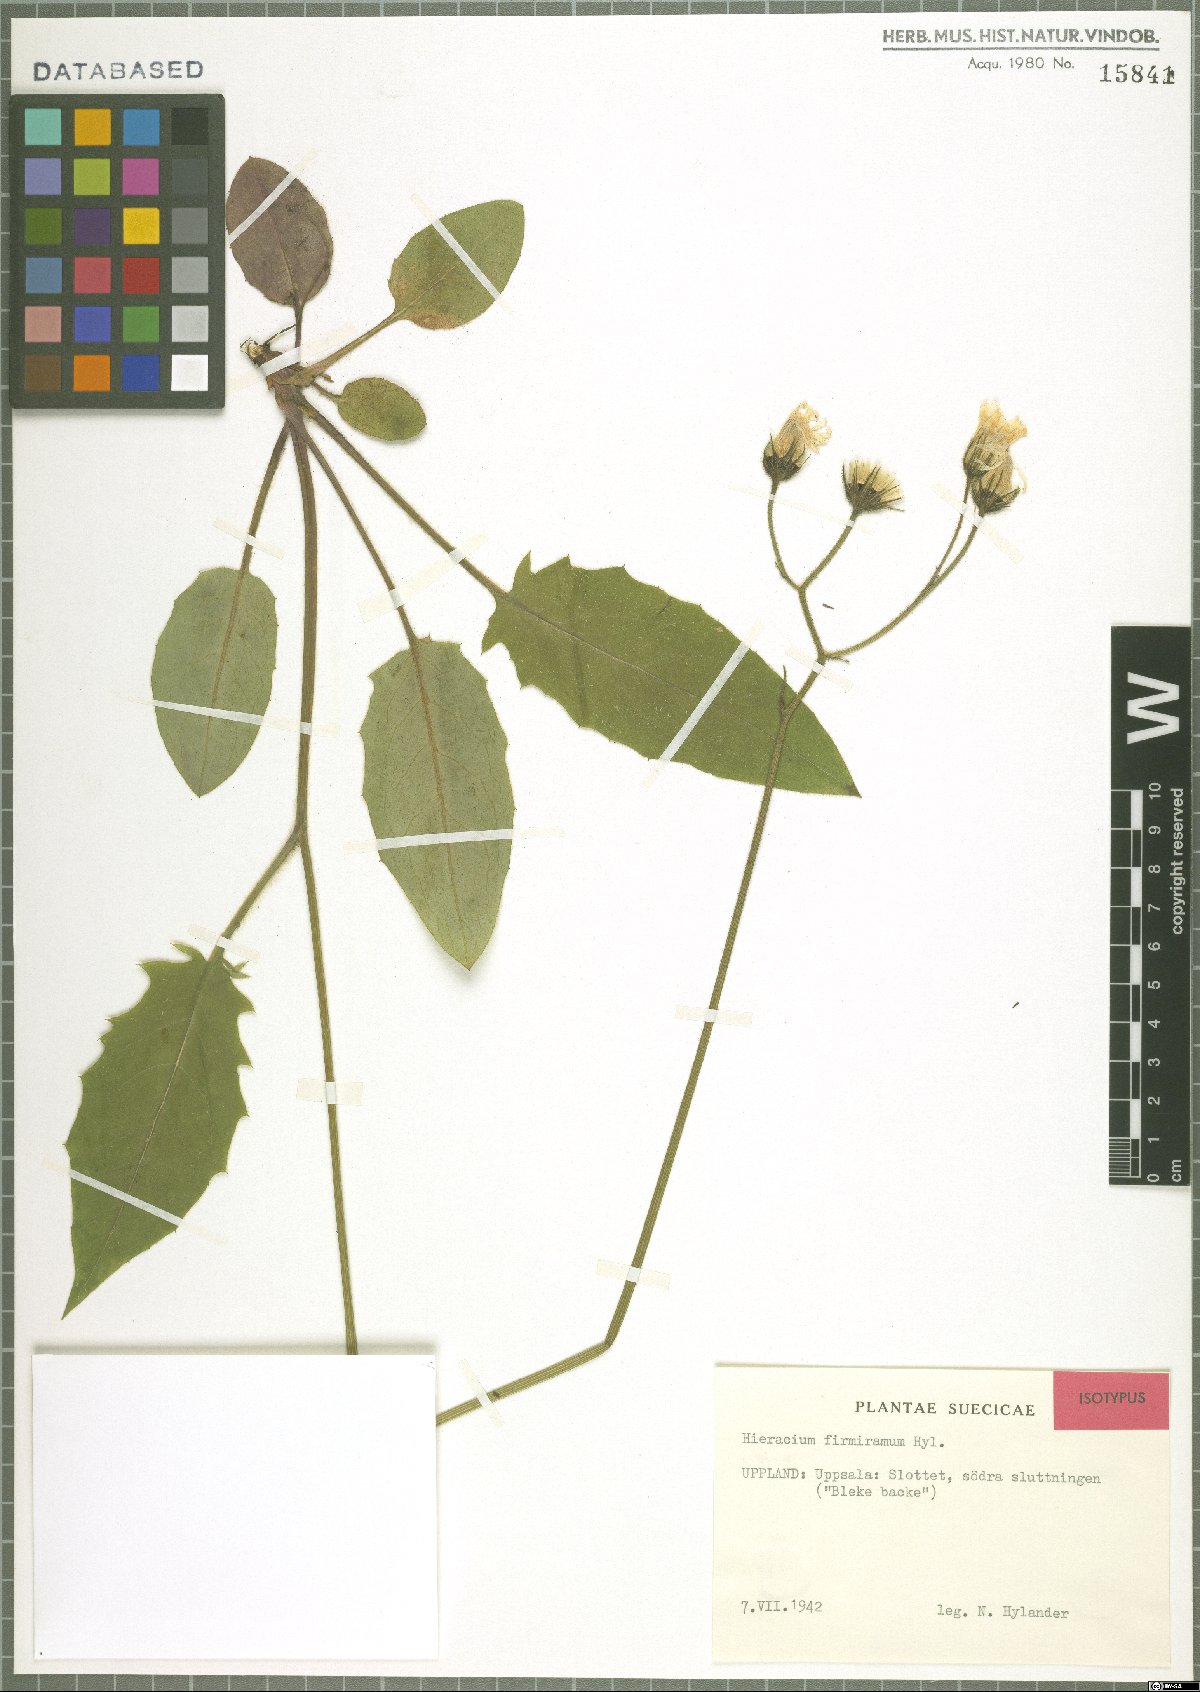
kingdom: Plantae
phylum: Tracheophyta
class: Magnoliopsida
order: Asterales
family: Asteraceae
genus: Hieracium
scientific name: Hieracium murorum
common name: Wall hawkweed
